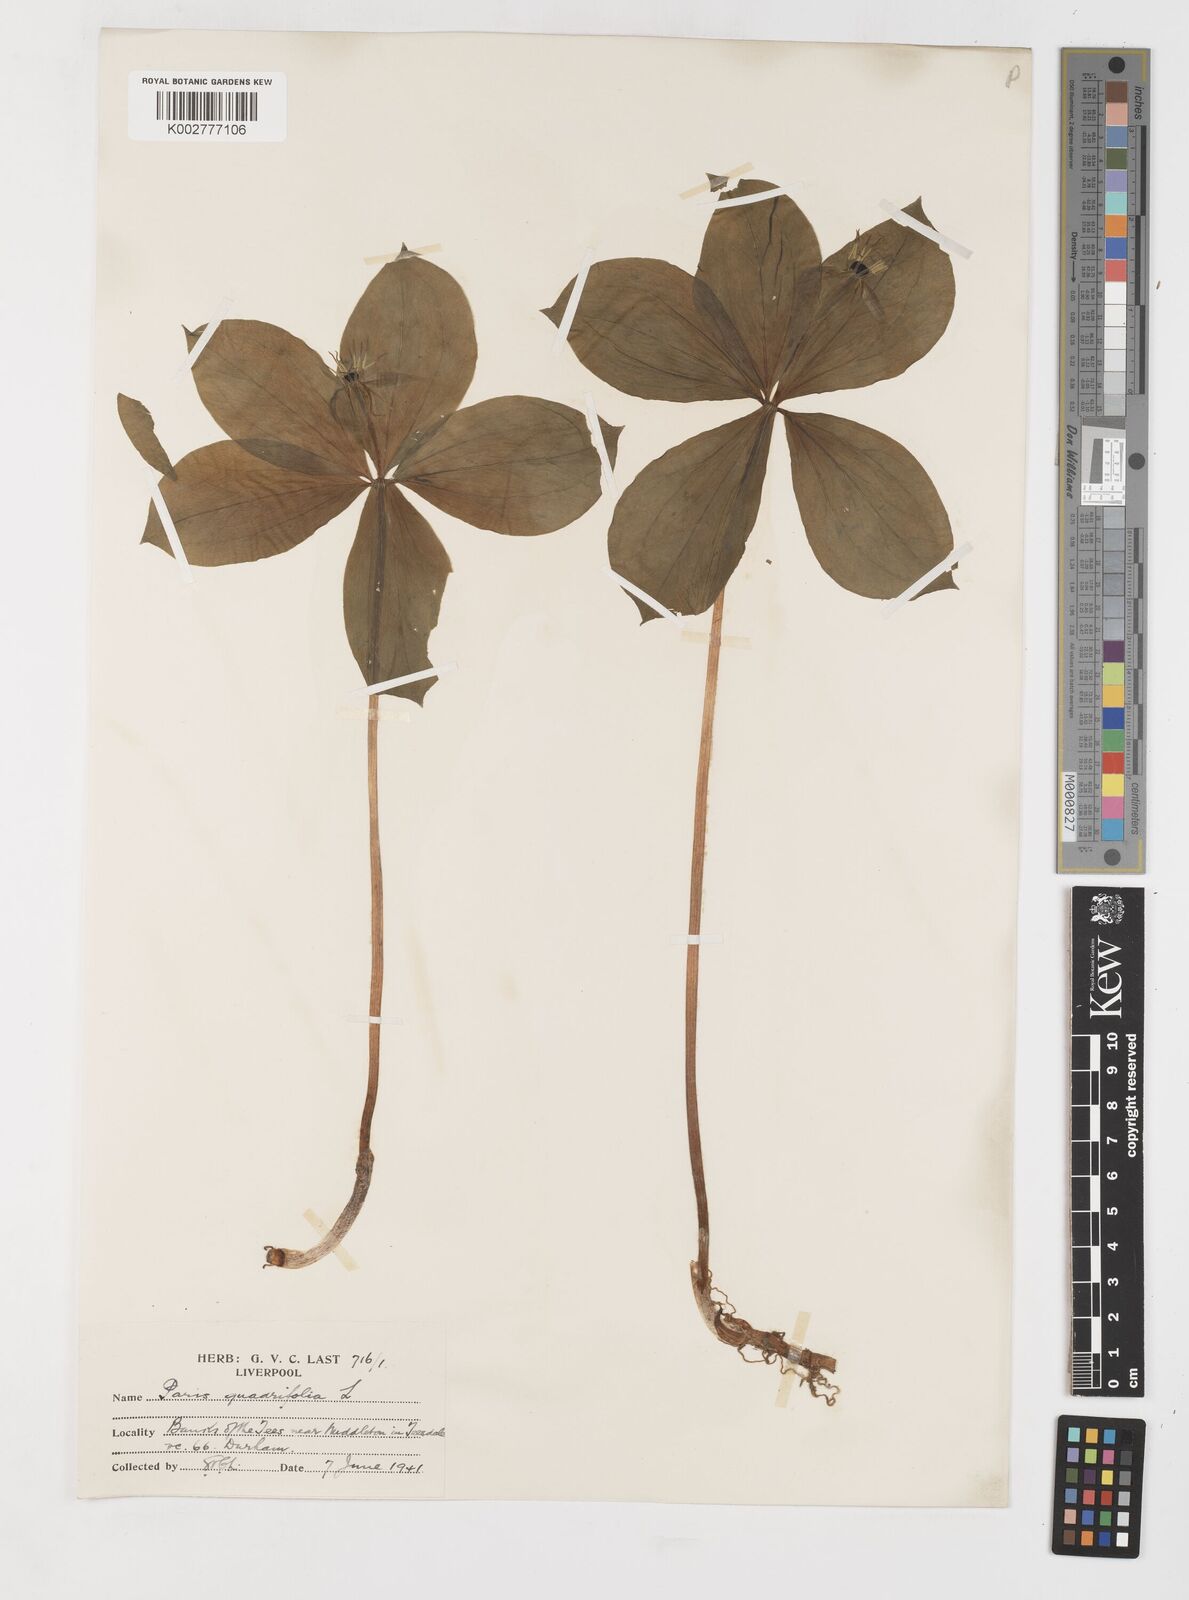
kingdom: Plantae
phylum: Tracheophyta
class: Liliopsida
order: Liliales
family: Melanthiaceae
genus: Paris
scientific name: Paris quadrifolia
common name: Herb-paris
